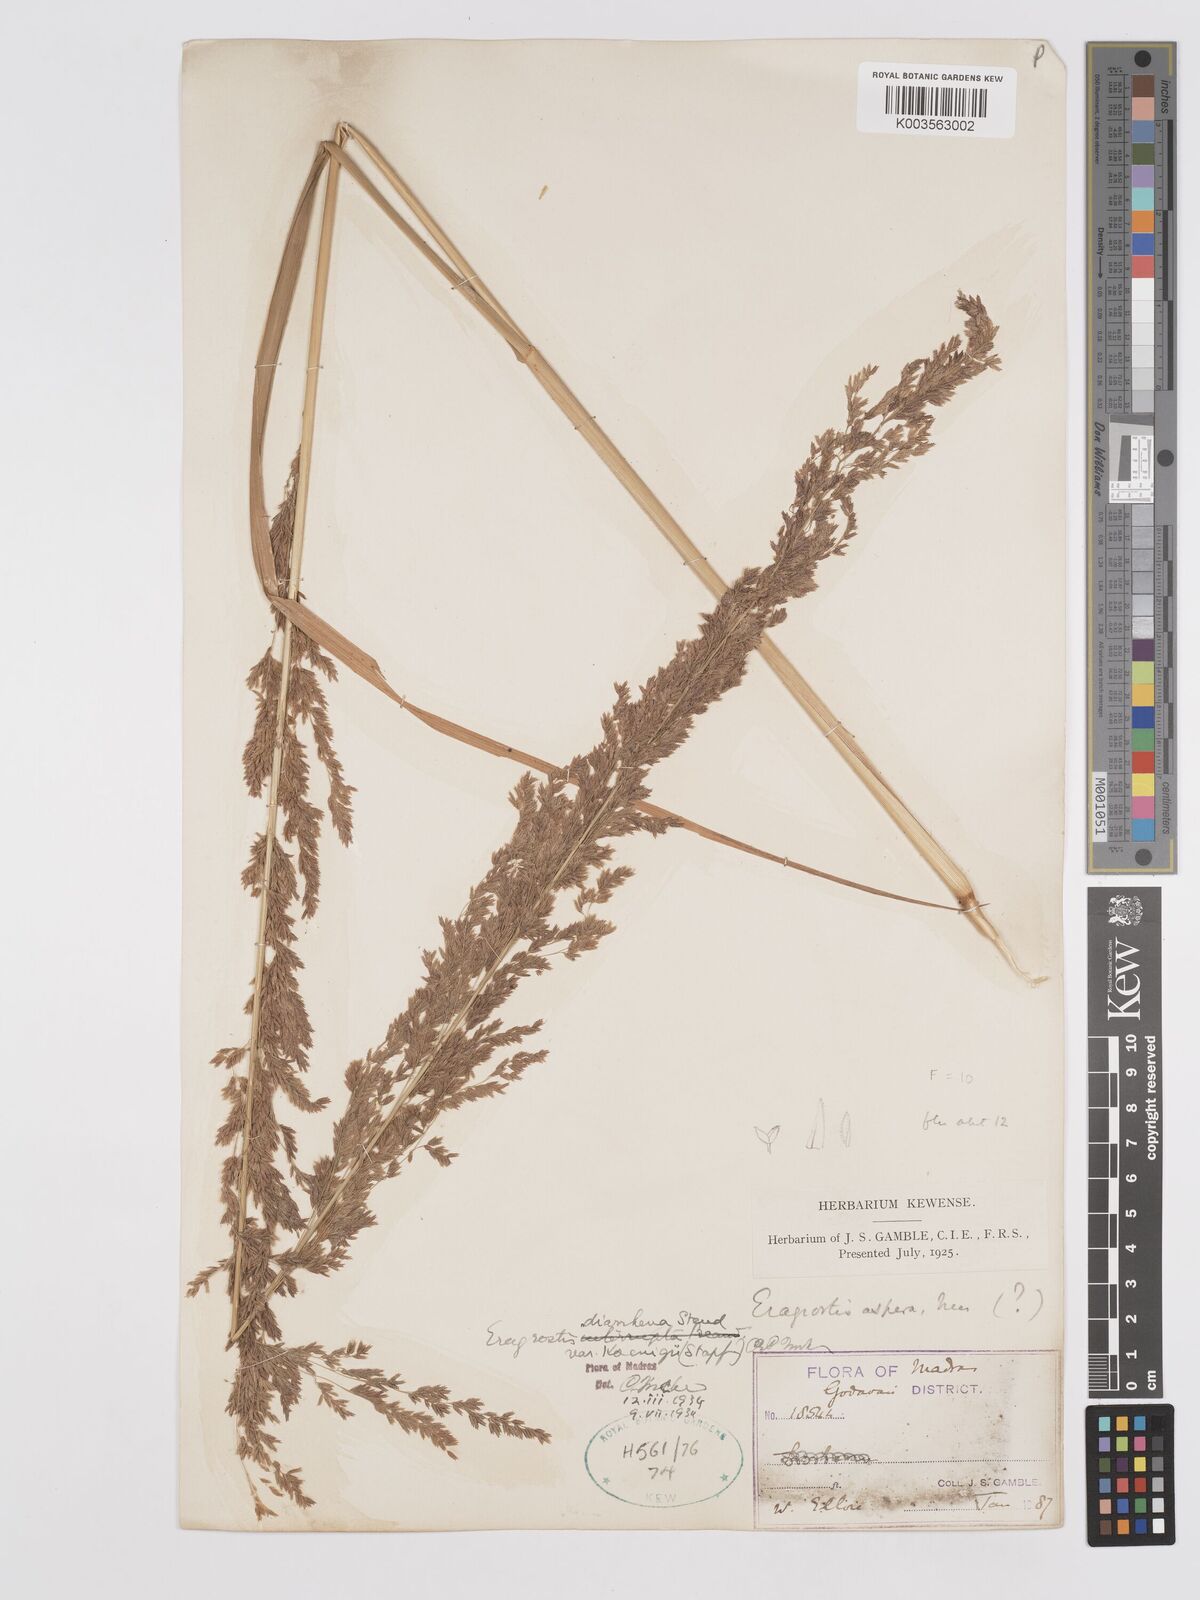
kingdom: Plantae
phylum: Tracheophyta
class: Liliopsida
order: Poales
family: Poaceae
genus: Eragrostis
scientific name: Eragrostis japonica
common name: Pond lovegrass
